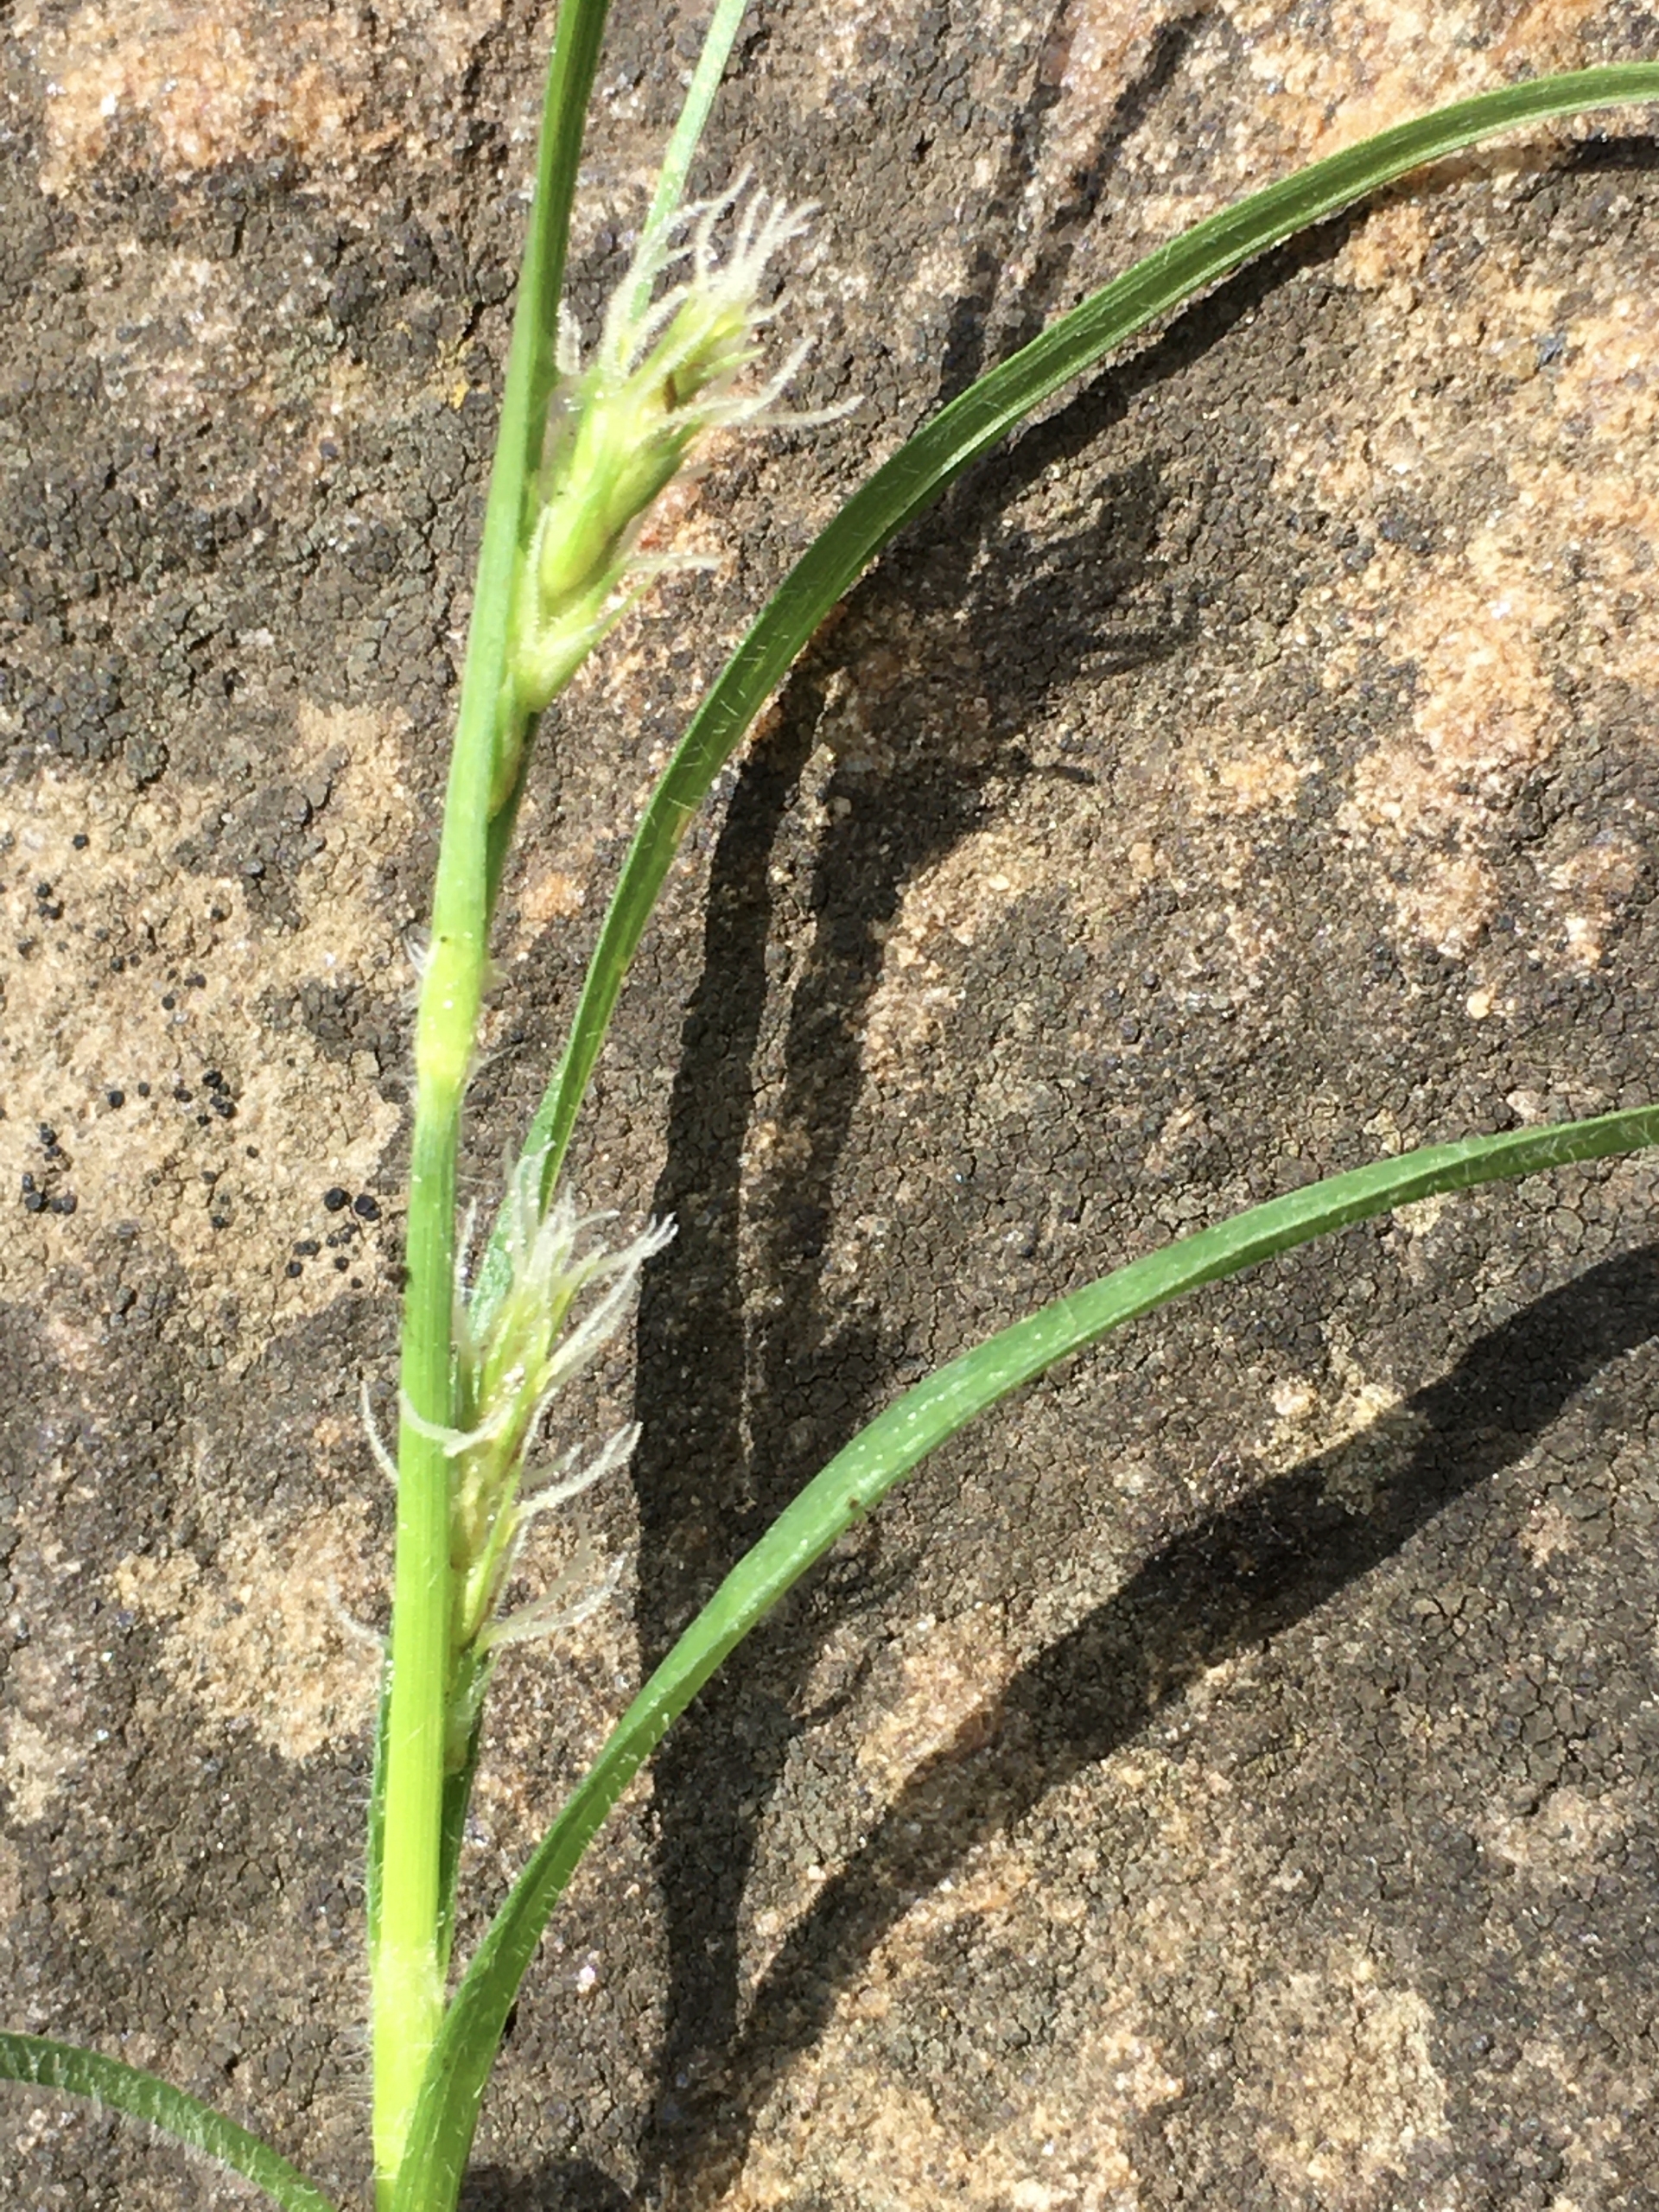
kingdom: Plantae
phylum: Tracheophyta
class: Liliopsida
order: Poales
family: Cyperaceae
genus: Carex
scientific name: Carex hirta
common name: Håret star
